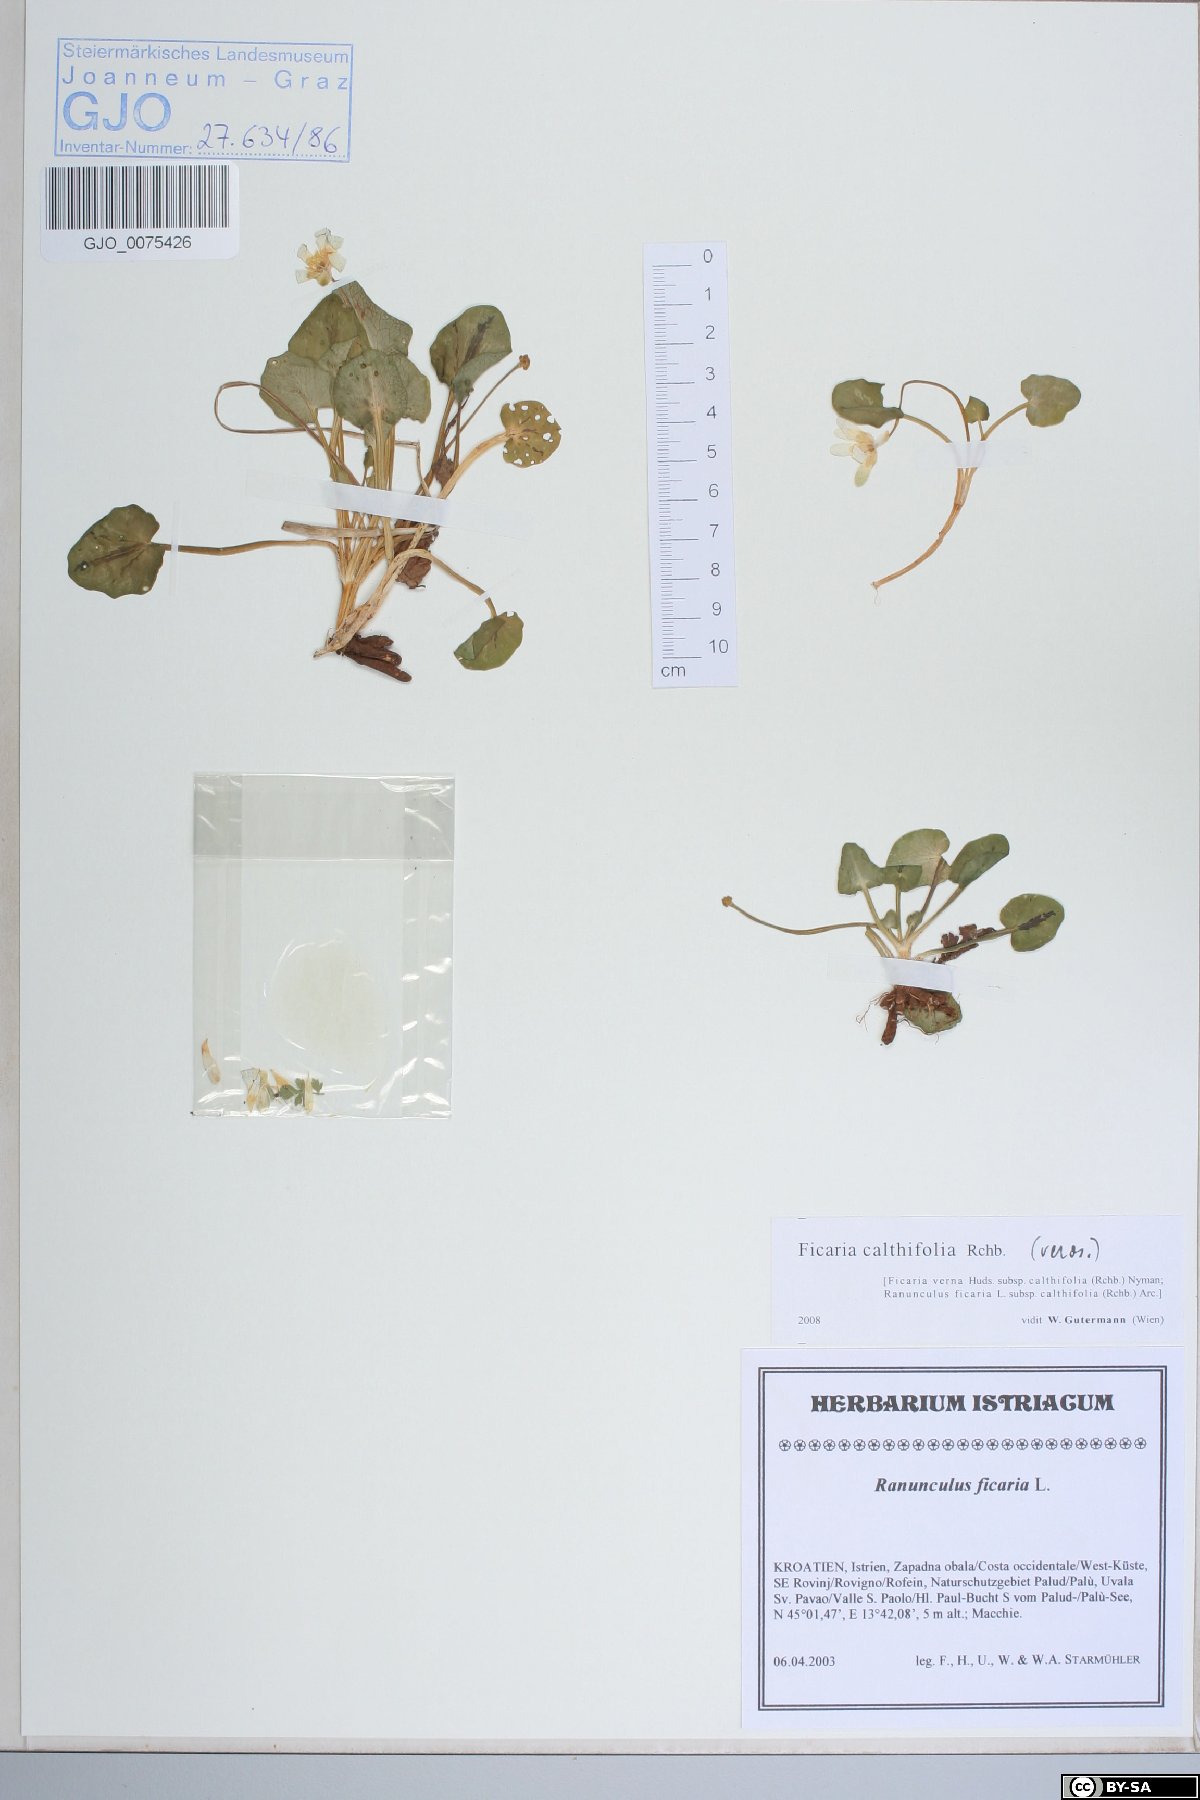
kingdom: Plantae
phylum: Tracheophyta
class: Magnoliopsida
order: Ranunculales
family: Ranunculaceae
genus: Ficaria
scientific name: Ficaria calthifolia
